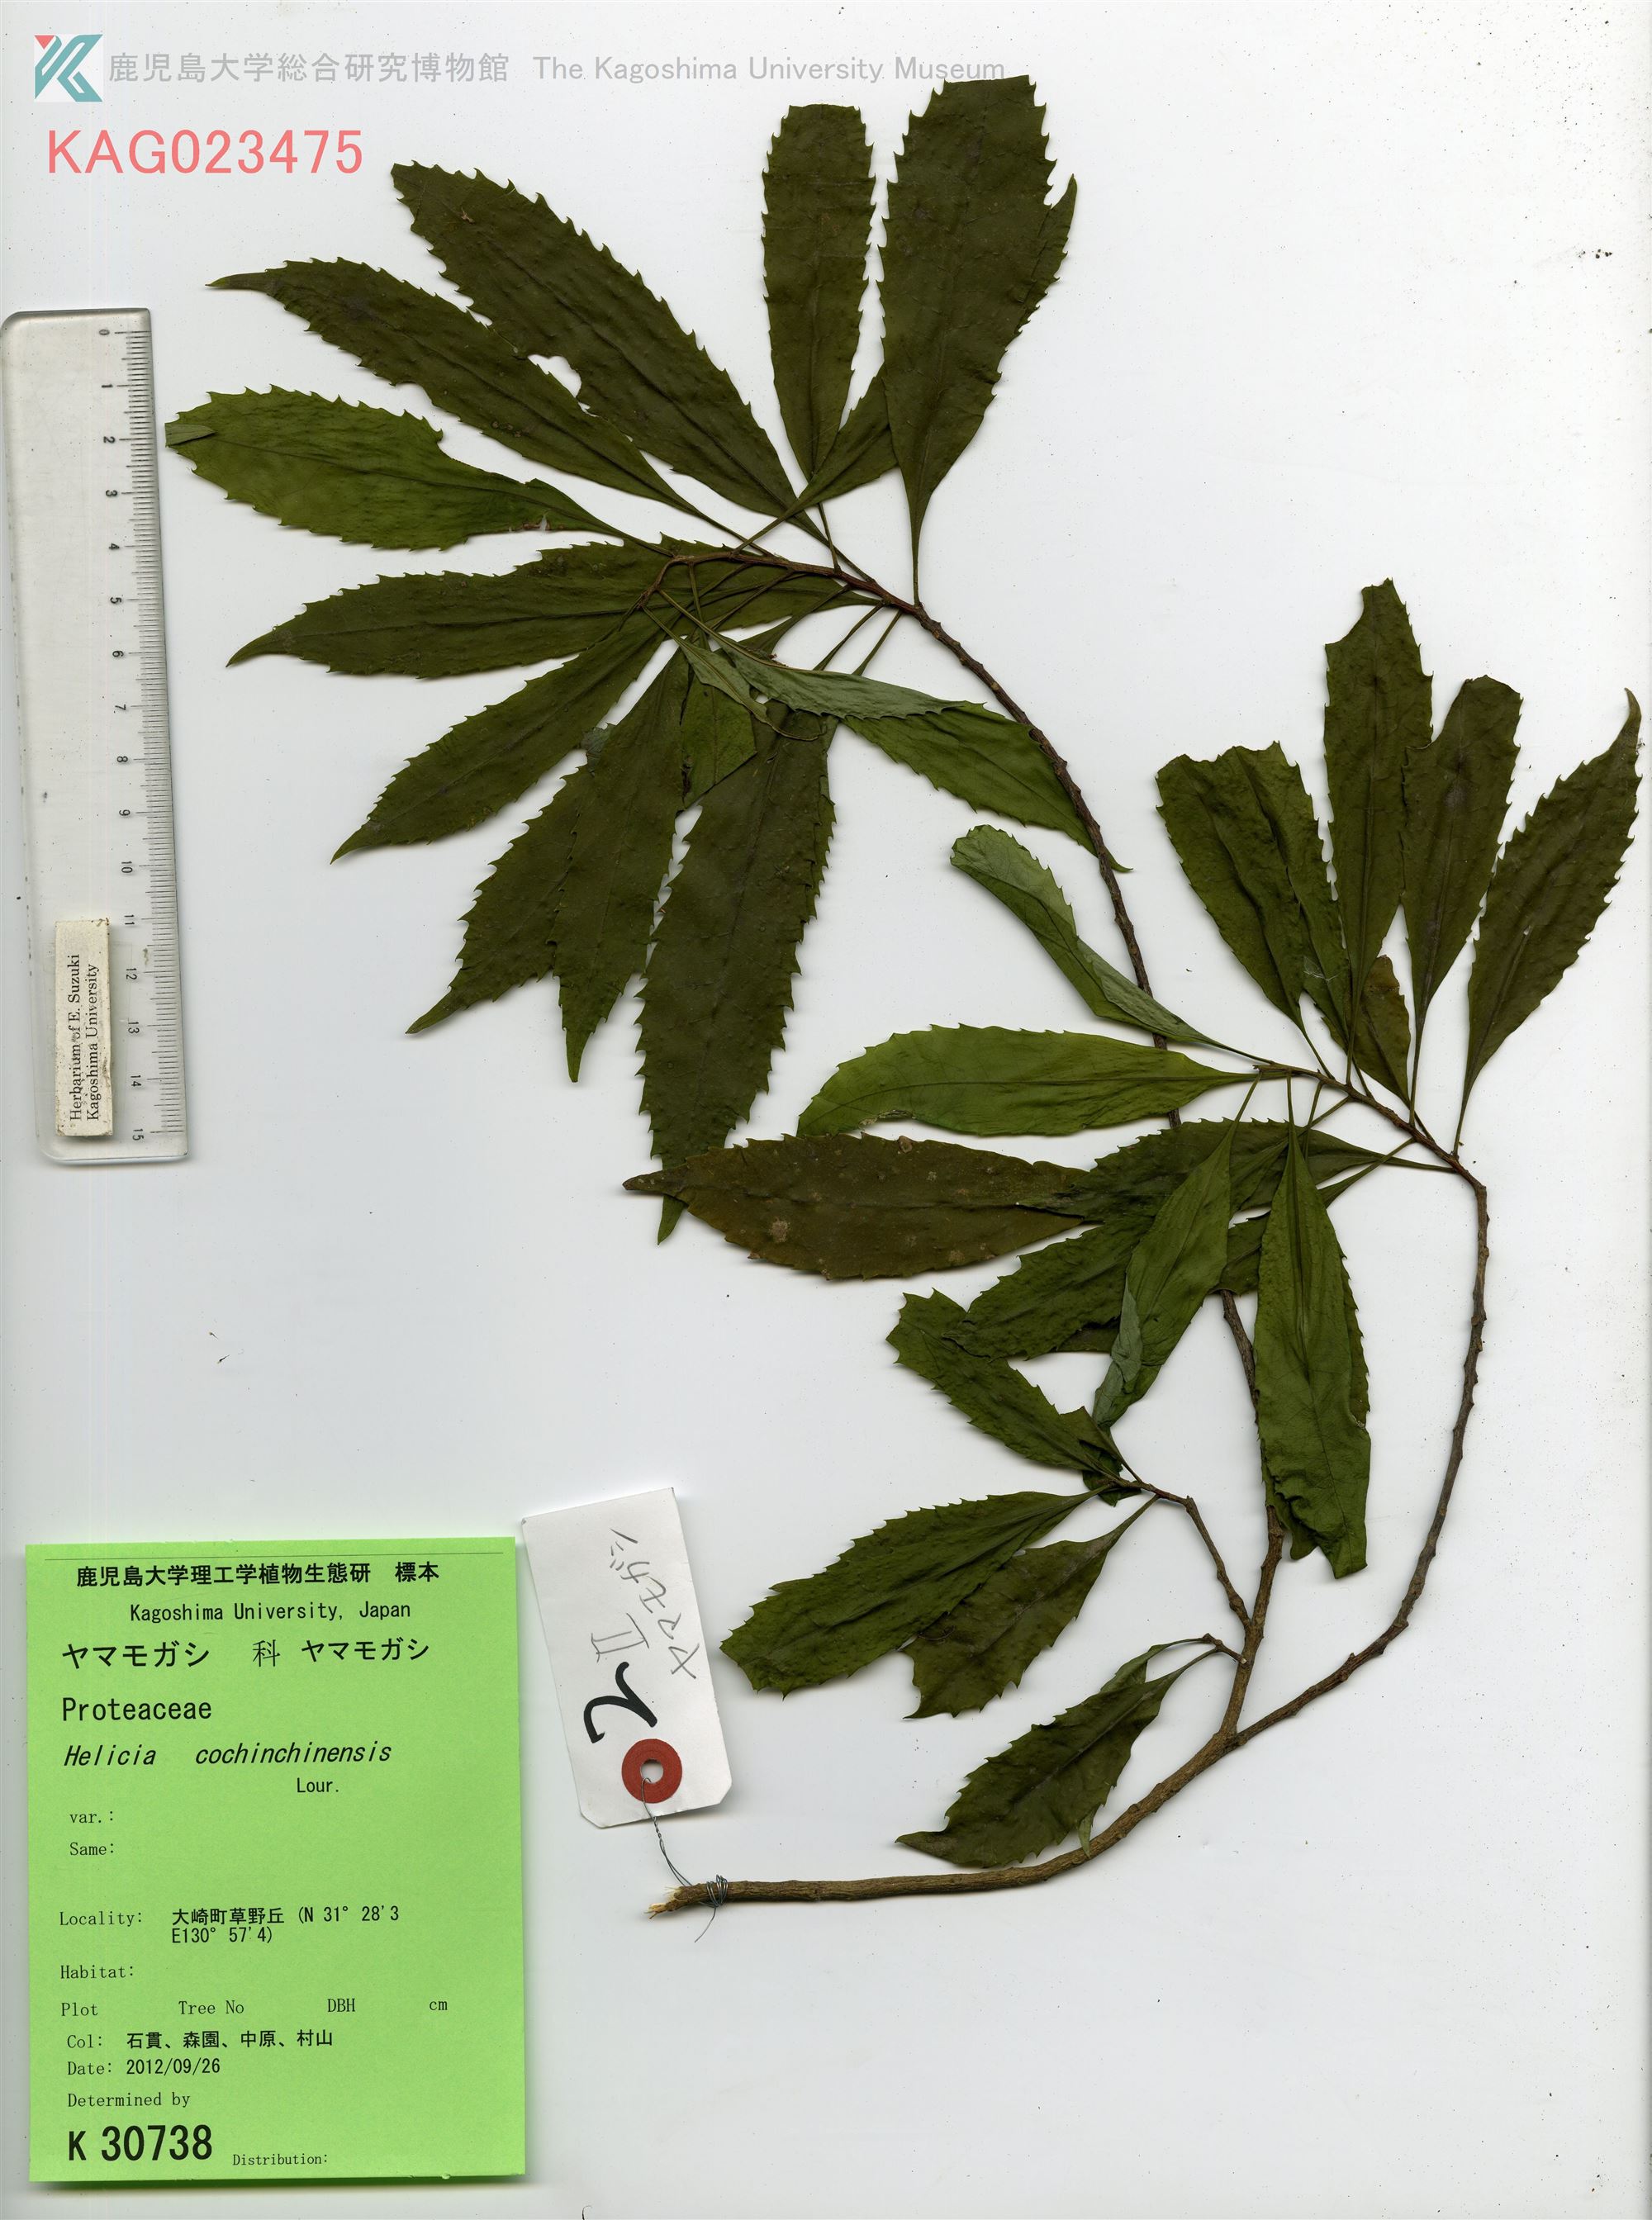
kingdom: Plantae
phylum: Tracheophyta
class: Magnoliopsida
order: Proteales
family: Proteaceae
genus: Helicia
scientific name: Helicia cochinchinensis
